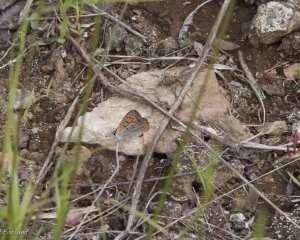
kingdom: Animalia
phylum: Arthropoda
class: Insecta
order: Lepidoptera
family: Lycaenidae
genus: Lycaena
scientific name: Lycaena phlaeas
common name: American Copper
